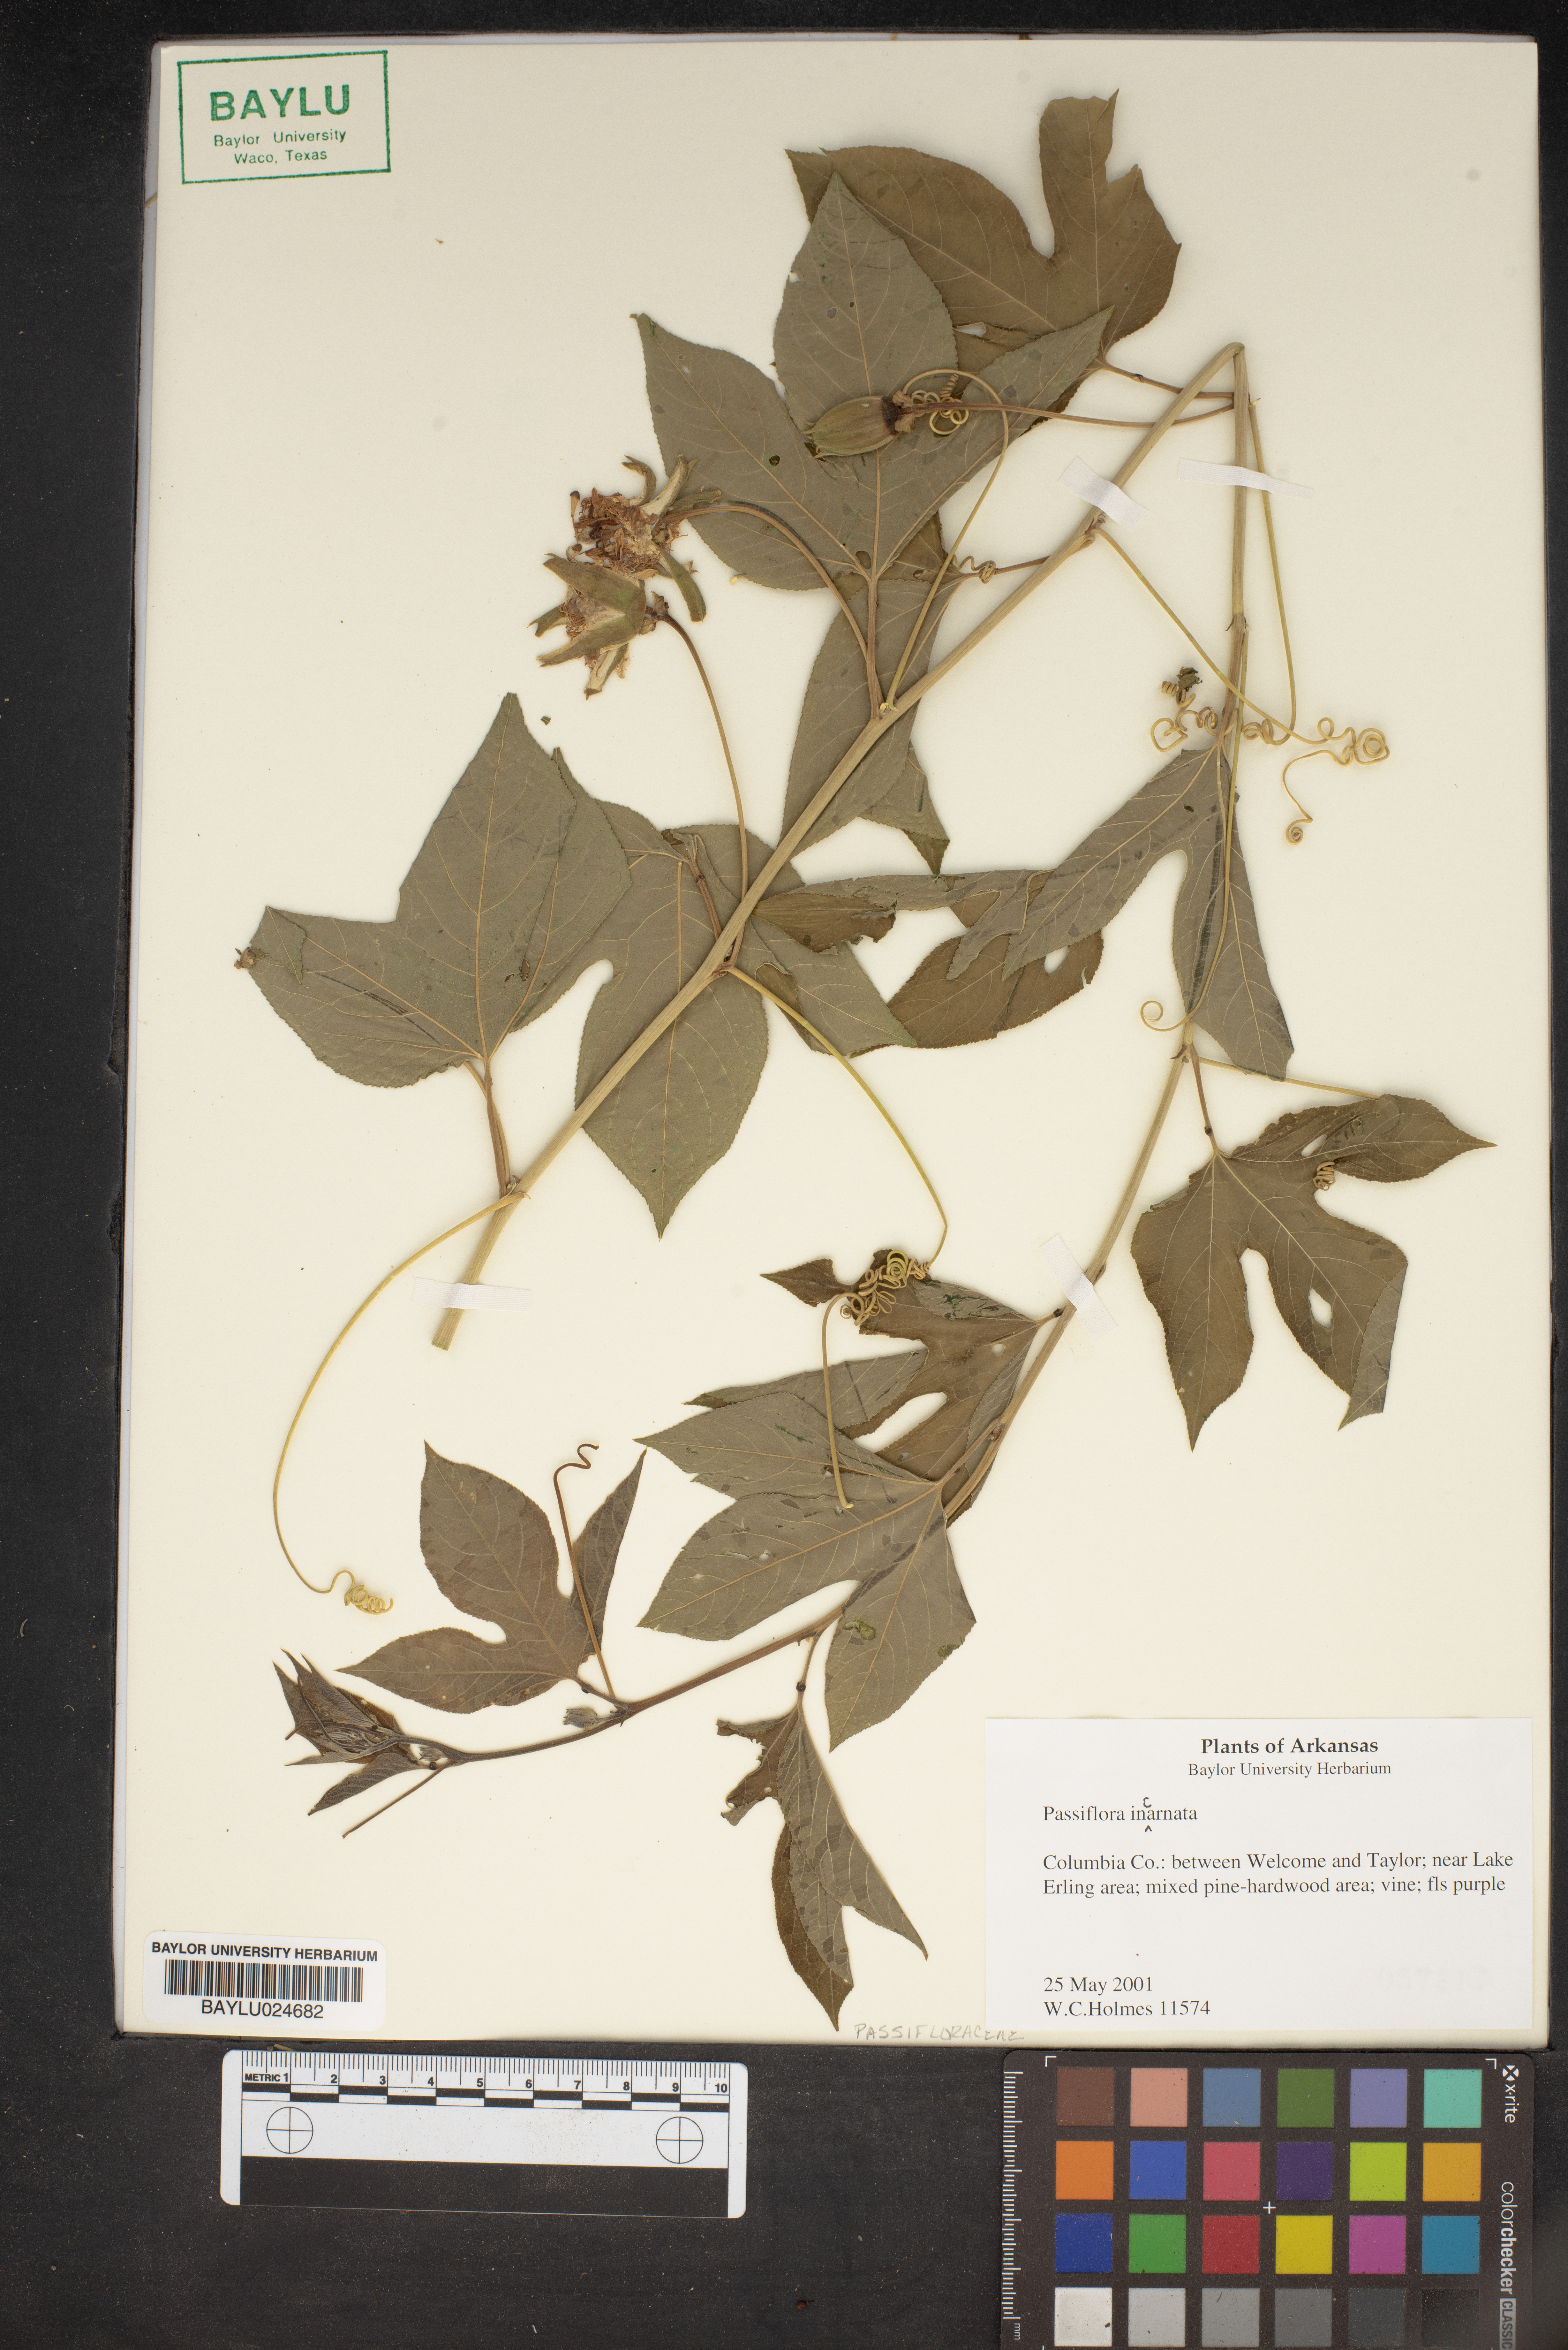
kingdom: Plantae
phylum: Tracheophyta
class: Magnoliopsida
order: Malpighiales
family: Passifloraceae
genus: Passiflora
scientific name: Passiflora incarnata
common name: Apricot-vine
